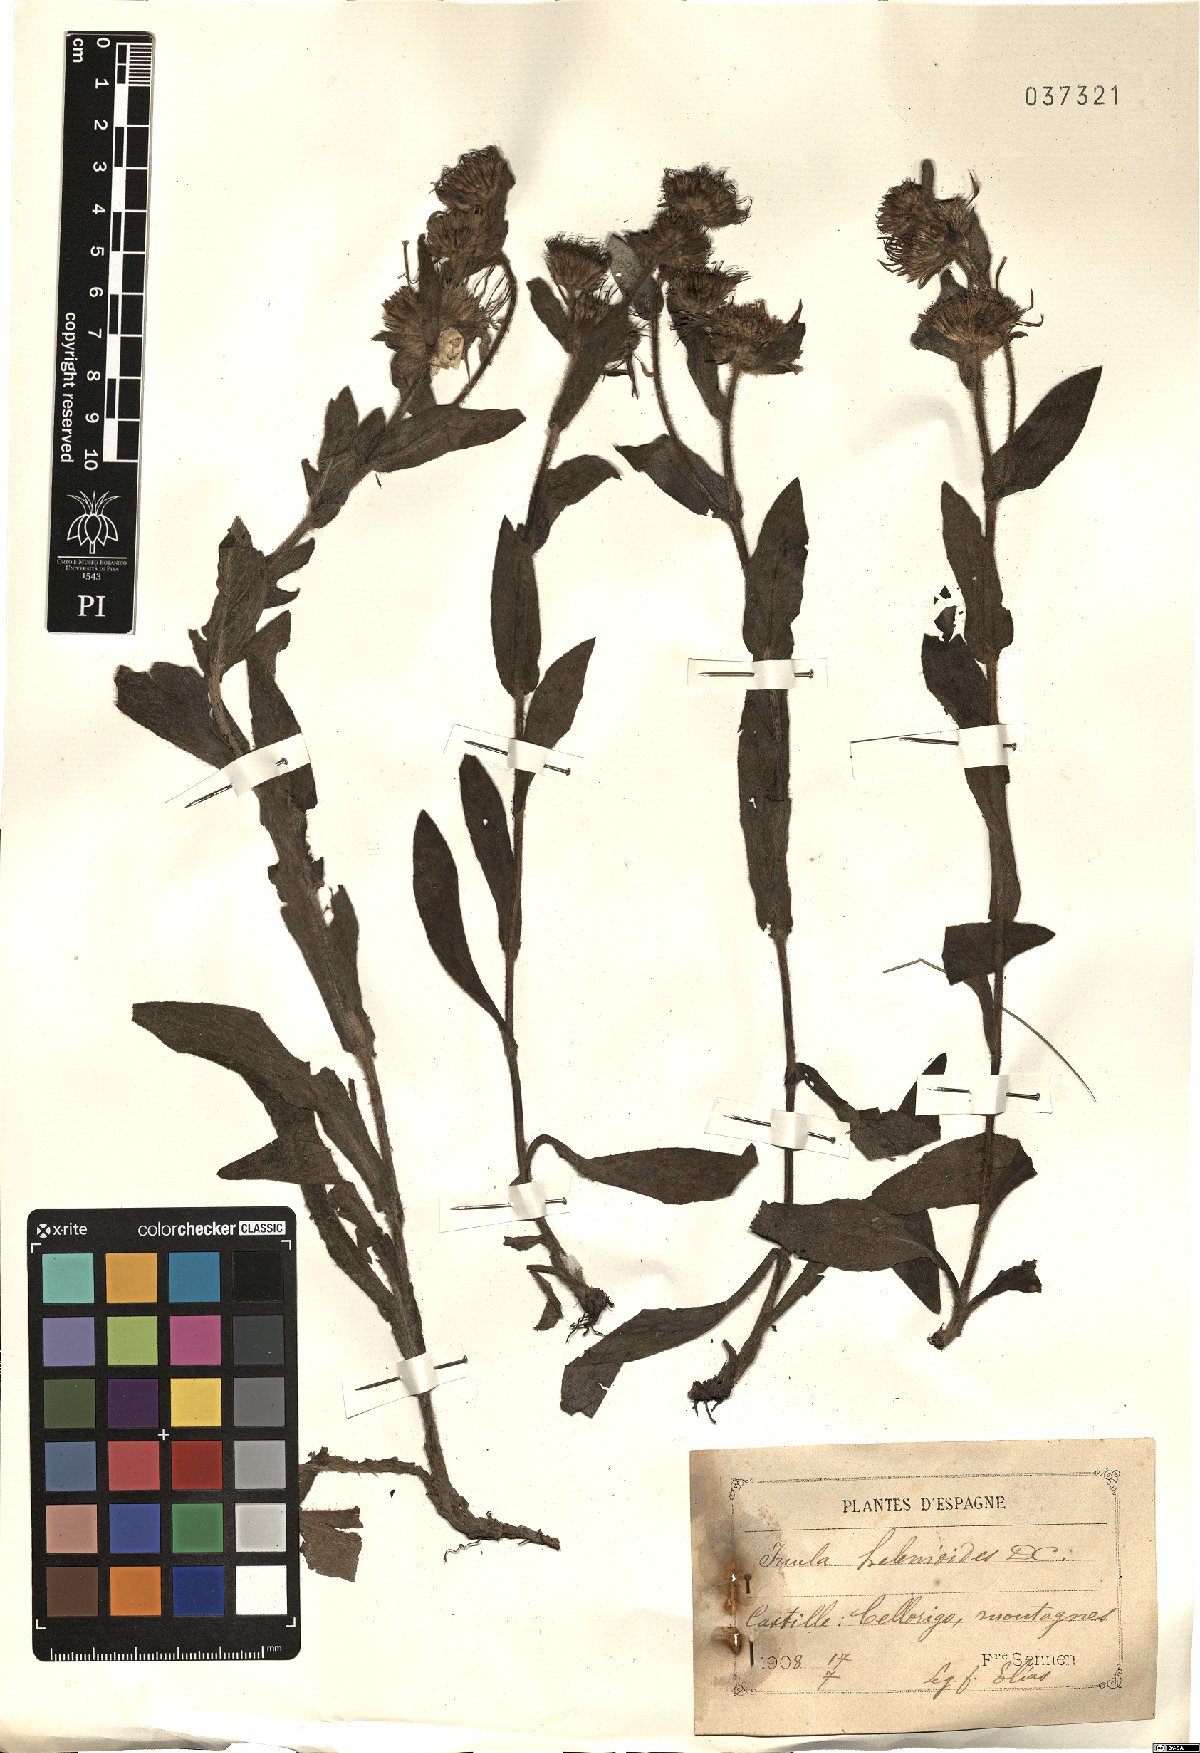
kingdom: Plantae
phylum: Tracheophyta
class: Magnoliopsida
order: Asterales
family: Asteraceae
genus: Pentanema
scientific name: Pentanema helenioides
